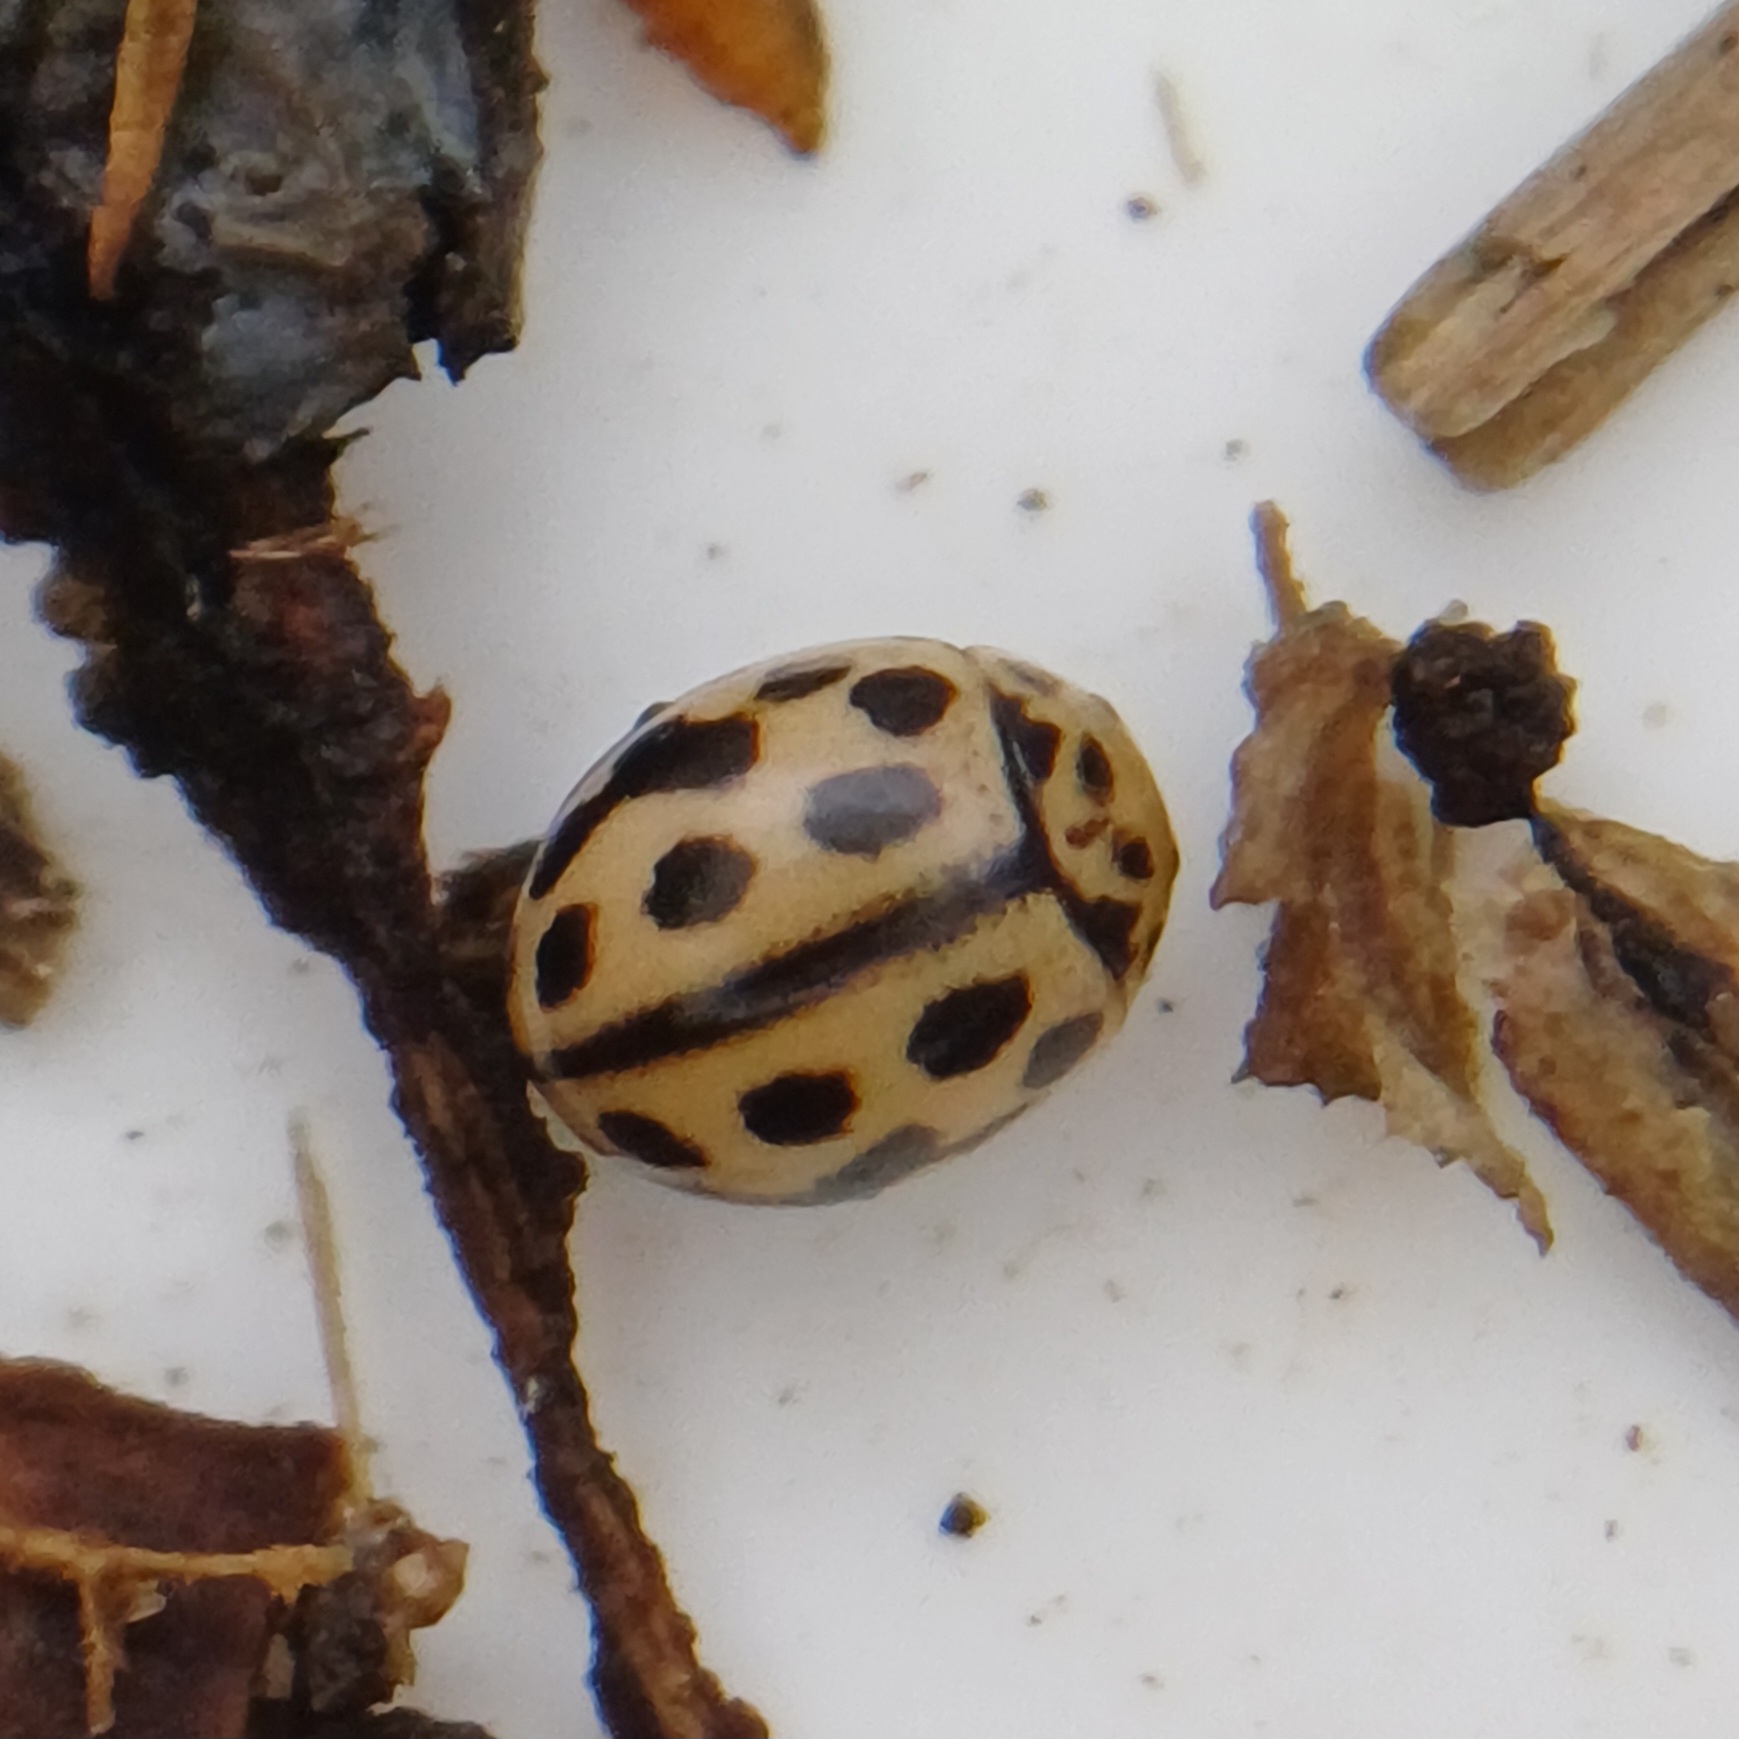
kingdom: Animalia
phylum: Arthropoda
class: Insecta
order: Coleoptera
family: Coccinellidae
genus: Tytthaspis
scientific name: Tytthaspis sedecimpunctata
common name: Sekstenprikket mariehøne
